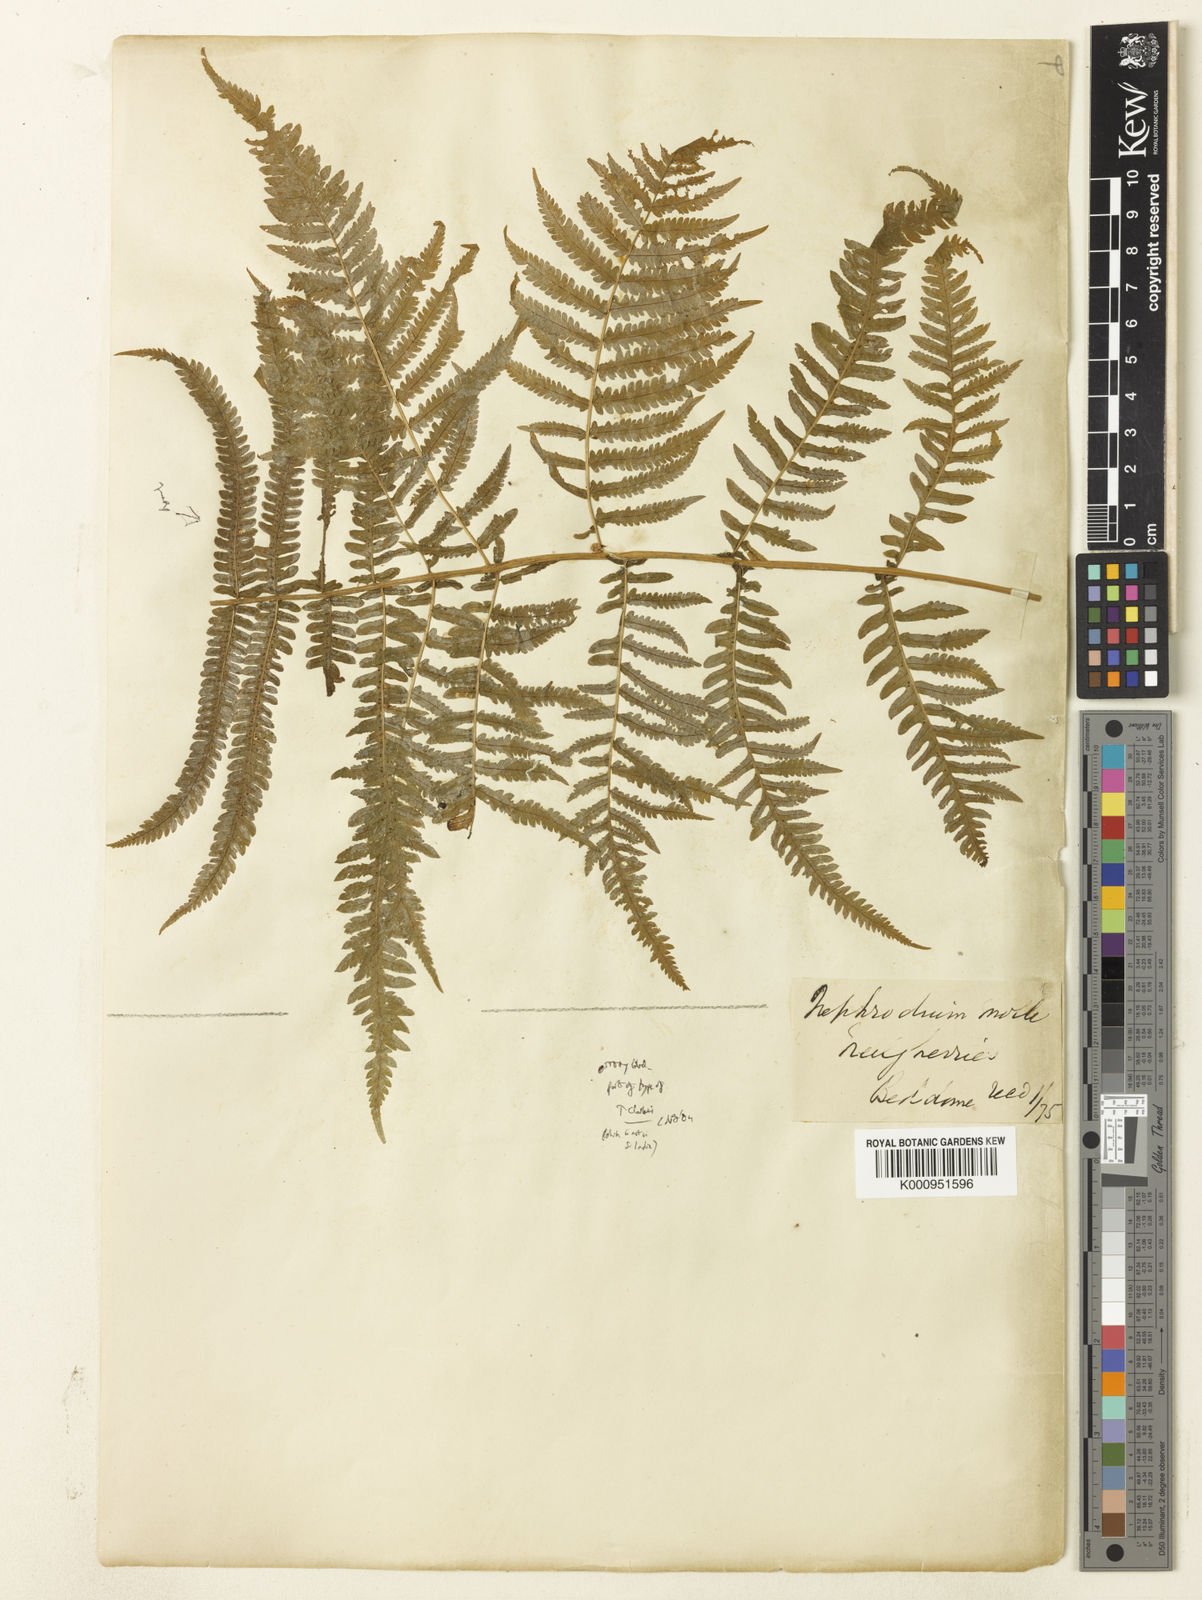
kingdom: Plantae
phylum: Tracheophyta
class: Polypodiopsida
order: Polypodiales
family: Thelypteridaceae
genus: Christella
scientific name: Christella clarkei
